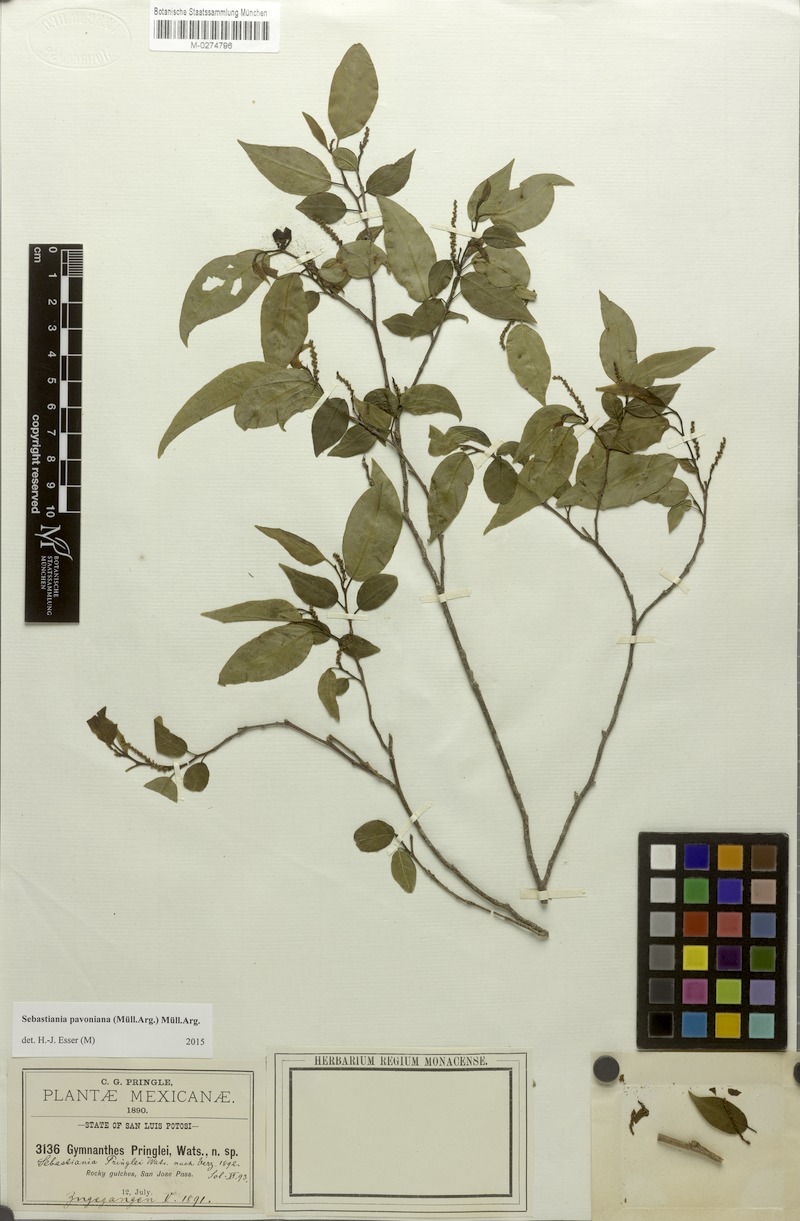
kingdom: Plantae
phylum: Tracheophyta
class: Magnoliopsida
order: Malpighiales
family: Euphorbiaceae
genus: Sebastiania
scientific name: Sebastiania pavoniana
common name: Mexican jumping-beans
